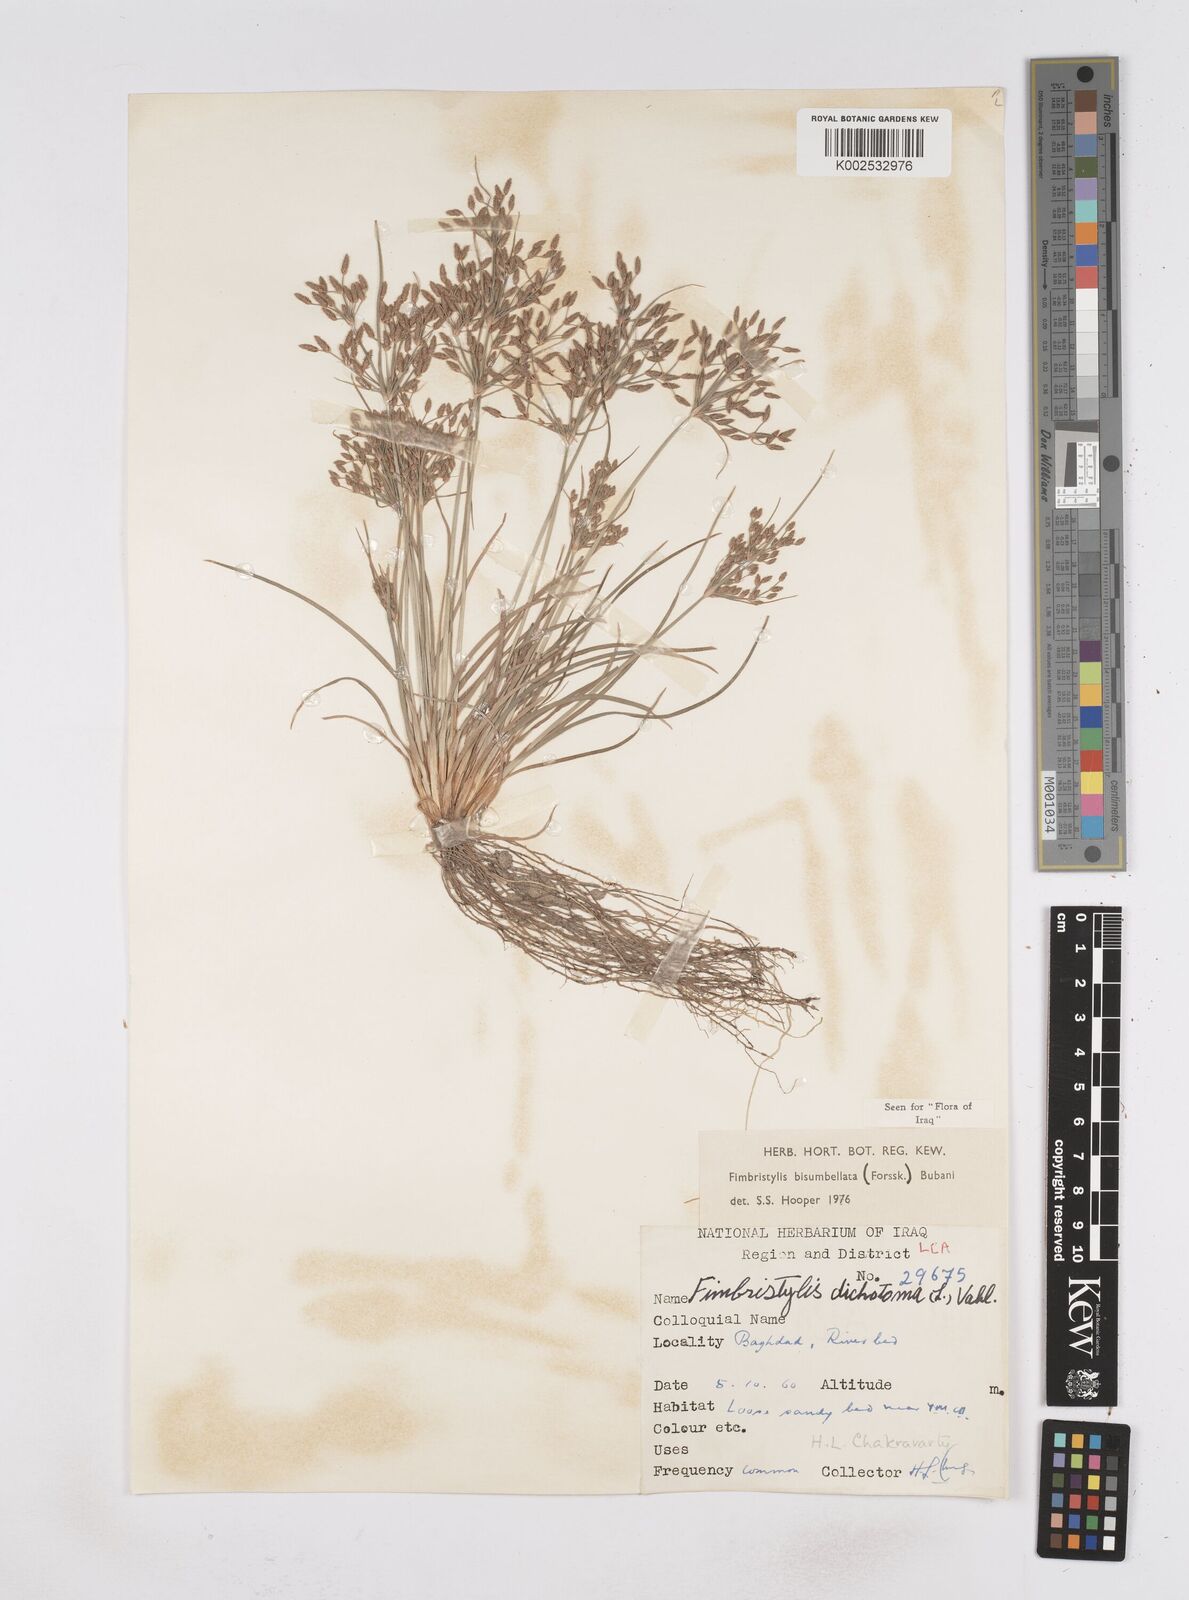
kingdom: Plantae
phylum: Tracheophyta
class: Liliopsida
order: Poales
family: Cyperaceae
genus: Fimbristylis
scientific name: Fimbristylis bisumbellata
